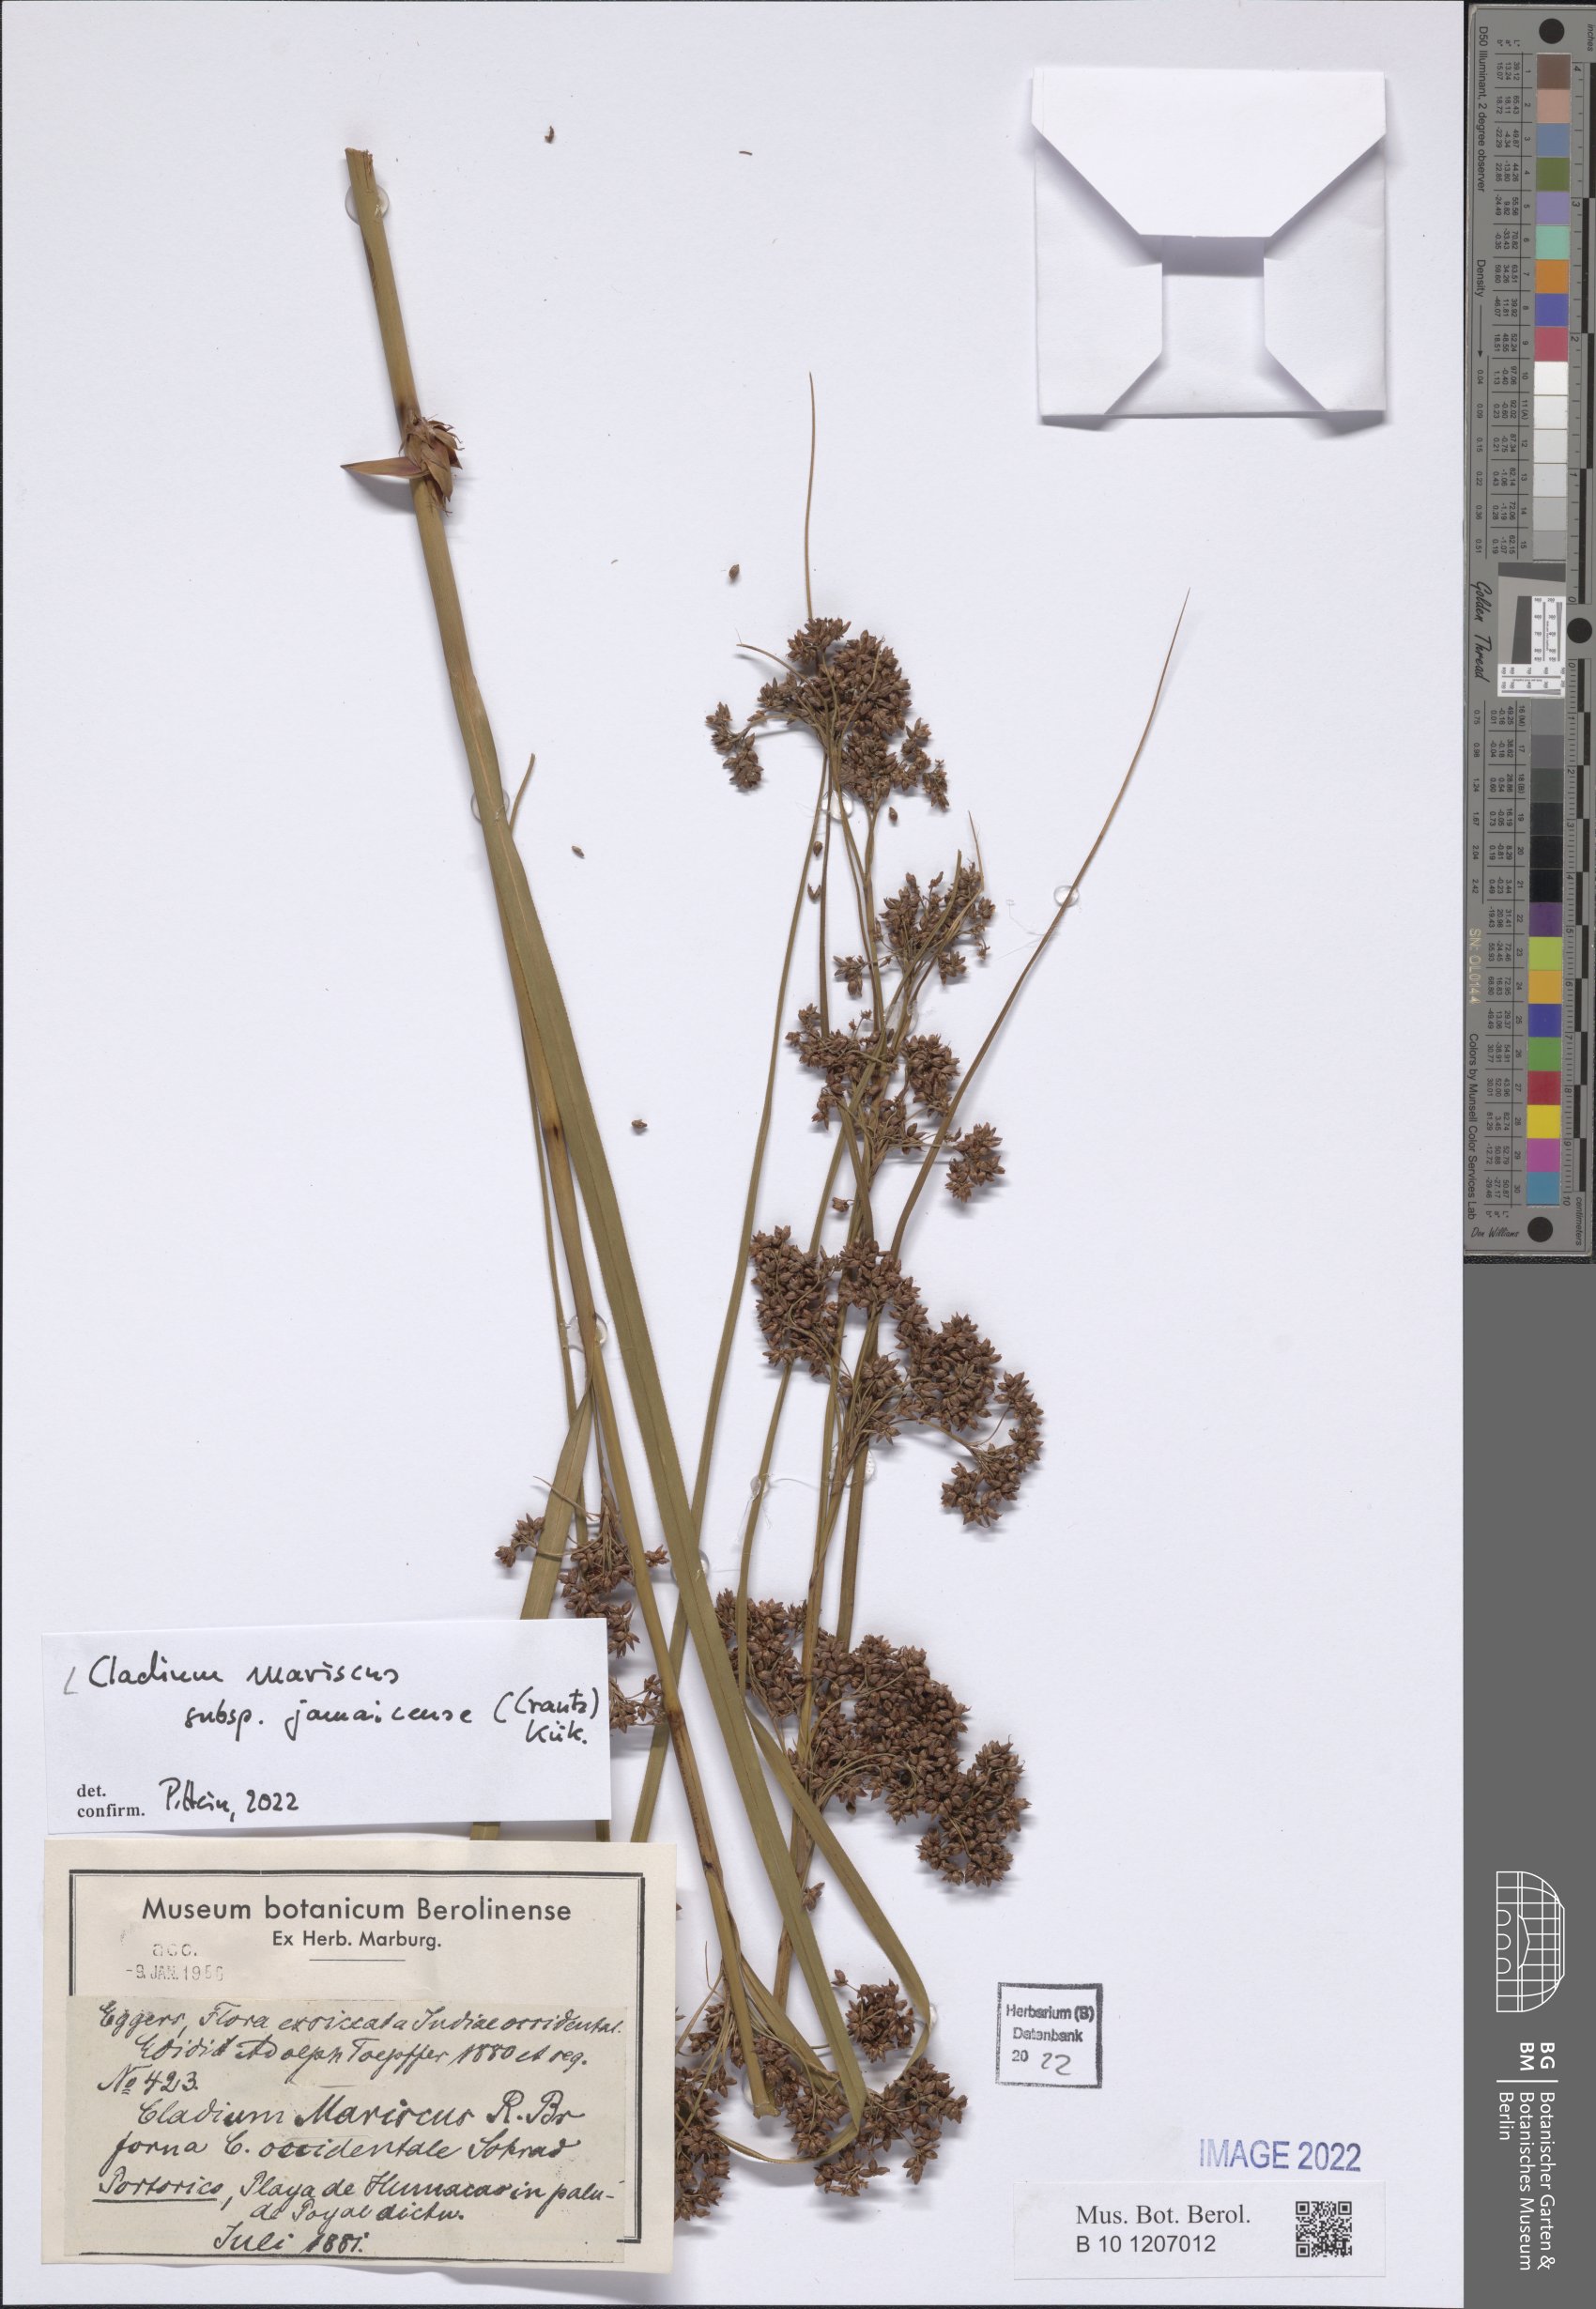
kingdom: Plantae
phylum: Tracheophyta
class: Liliopsida
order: Poales
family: Cyperaceae
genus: Cladium
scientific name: Cladium mariscus
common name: Great fen-sedge
